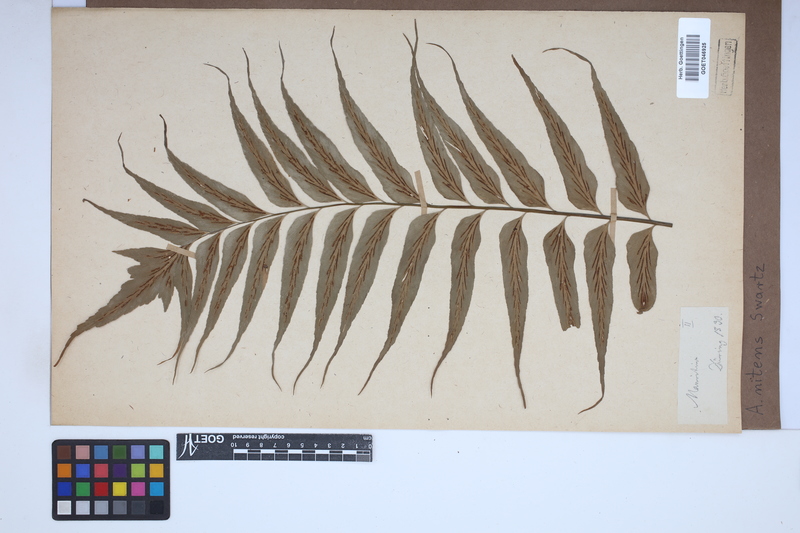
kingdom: Plantae
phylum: Tracheophyta
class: Polypodiopsida
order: Polypodiales
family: Aspleniaceae
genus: Asplenium
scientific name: Asplenium nitens
